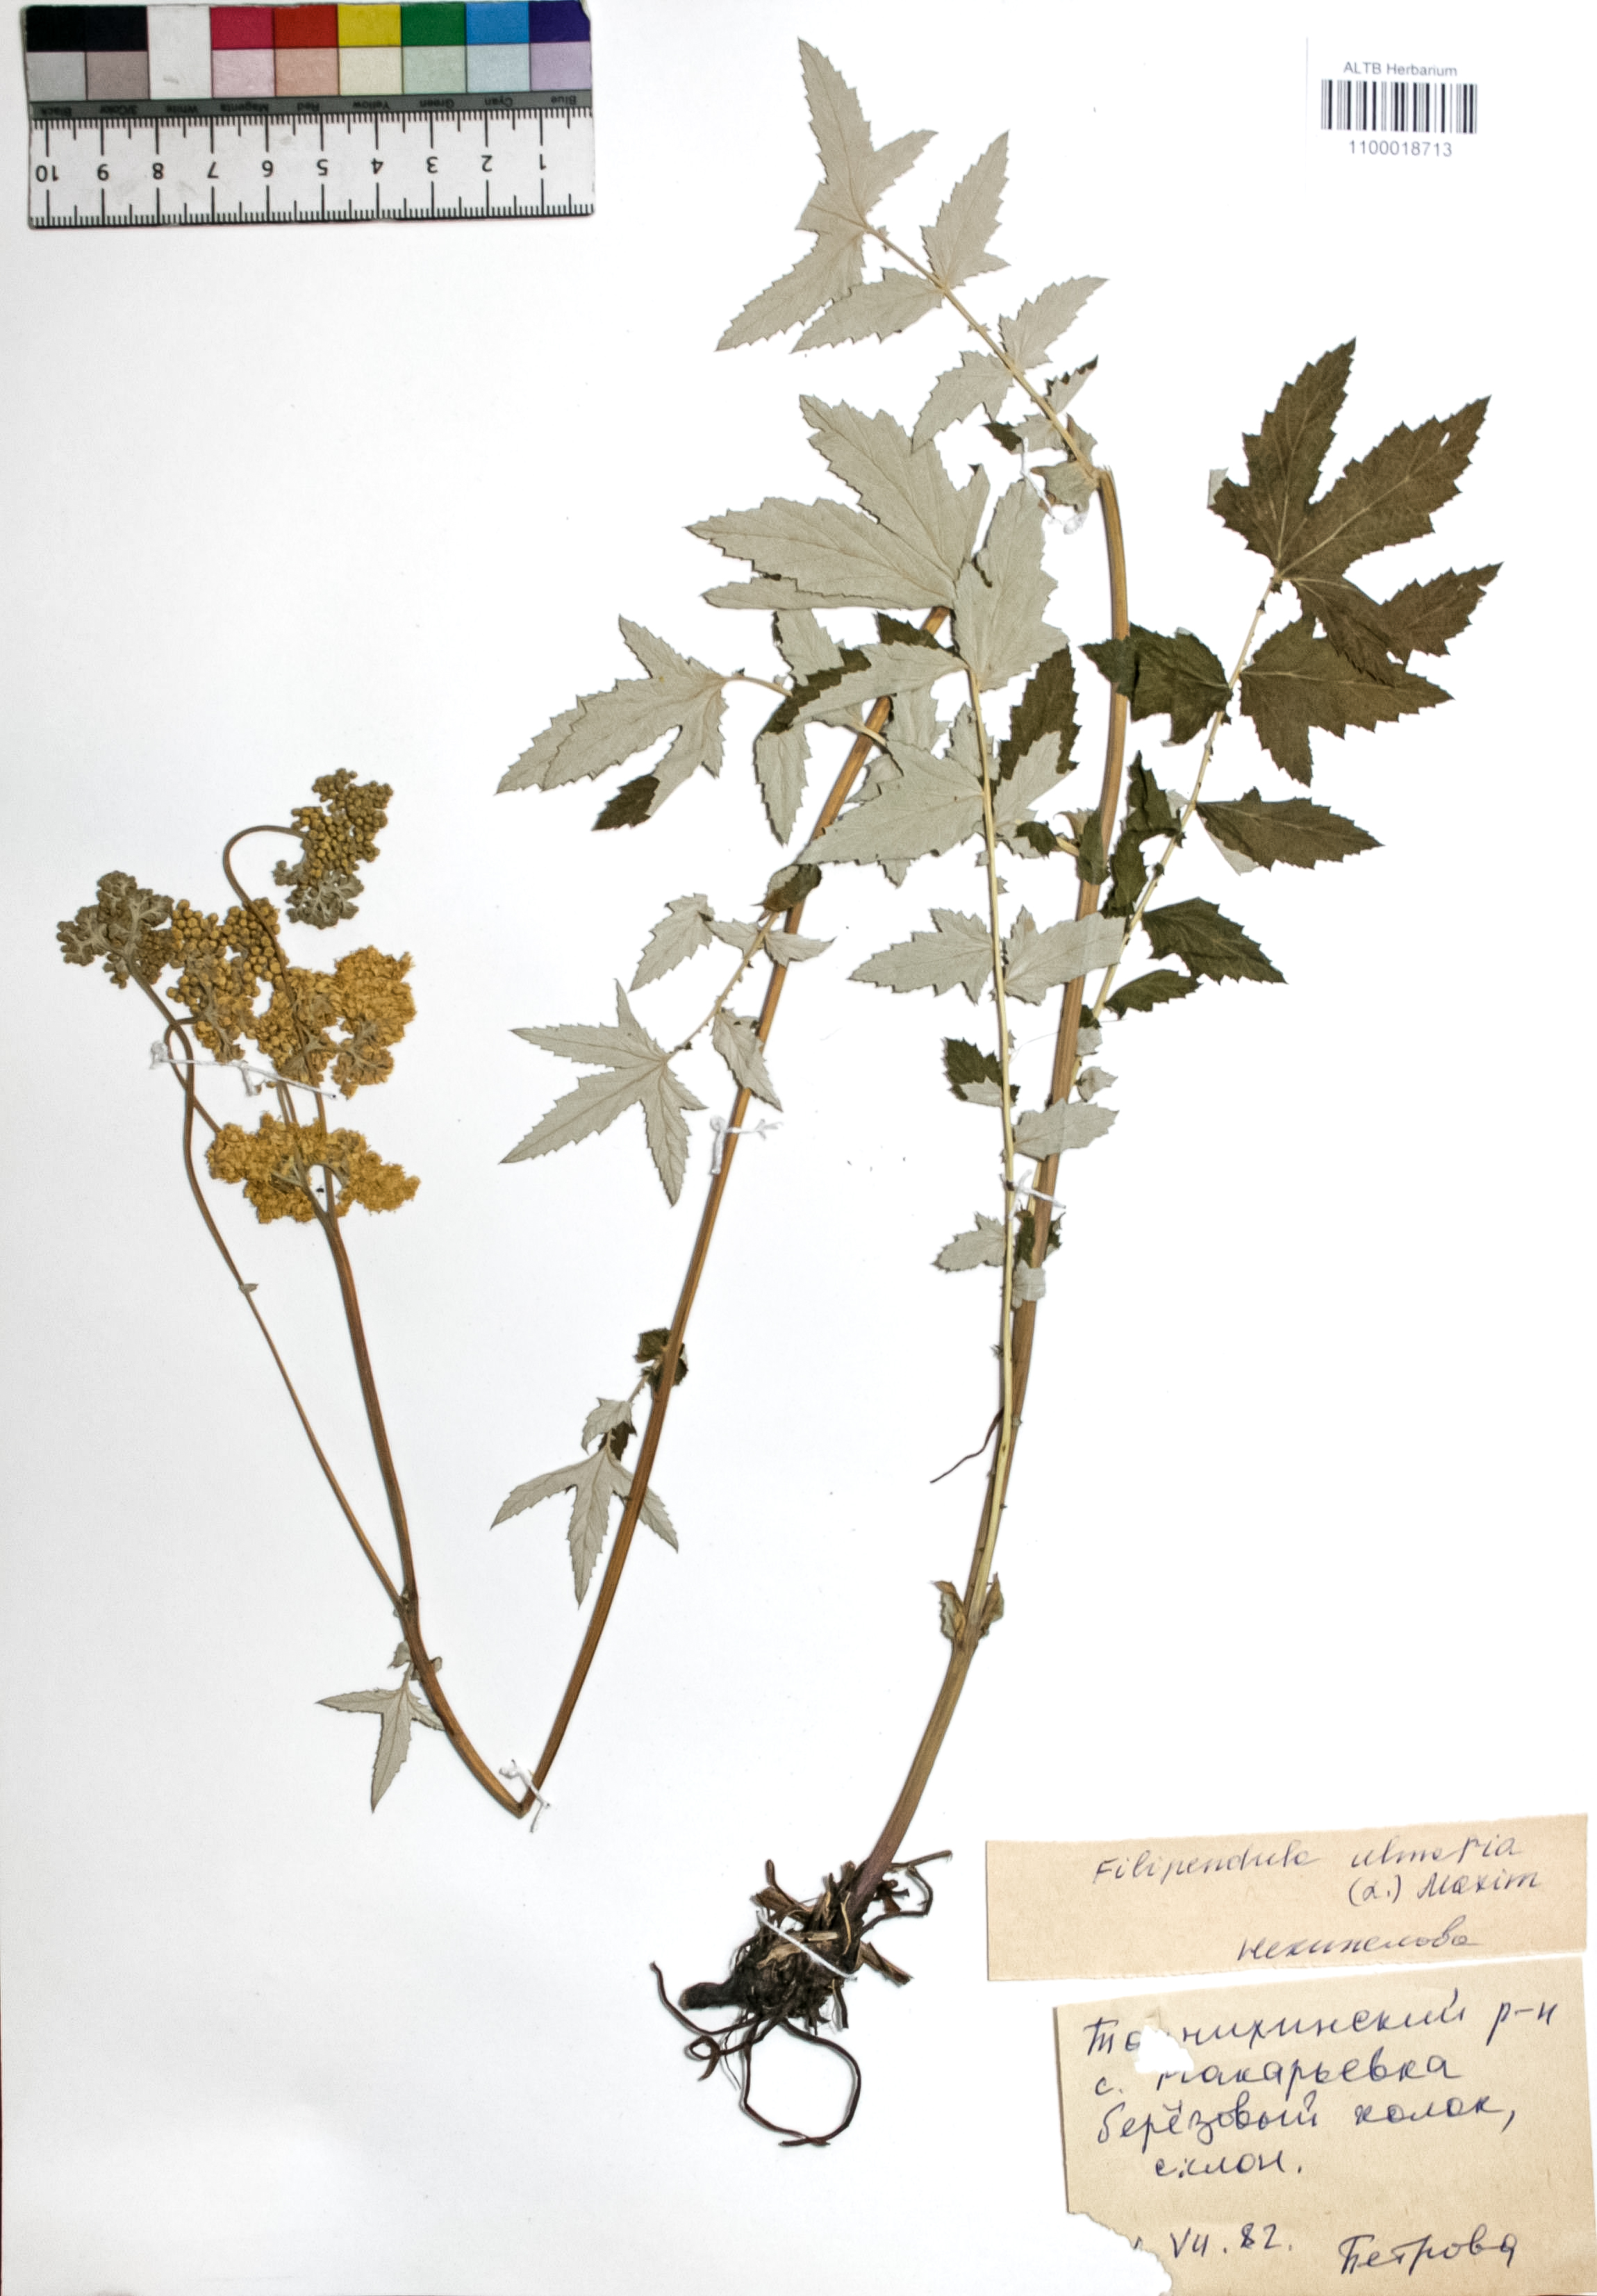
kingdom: Plantae
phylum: Tracheophyta
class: Magnoliopsida
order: Rosales
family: Rosaceae
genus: Filipendula
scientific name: Filipendula ulmaria
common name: Meadowsweet
